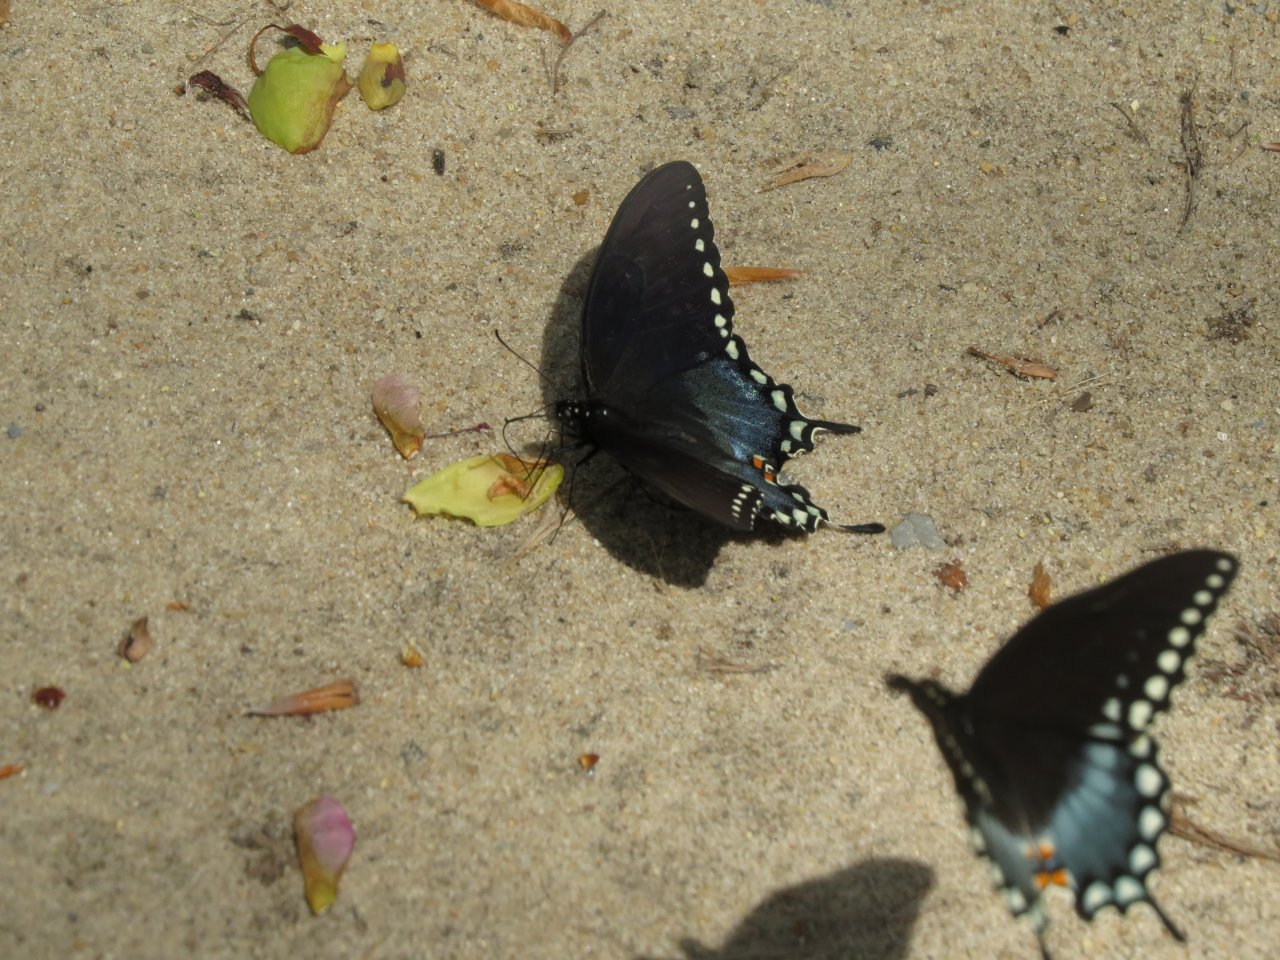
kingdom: Animalia
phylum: Arthropoda
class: Insecta
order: Lepidoptera
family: Papilionidae
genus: Pterourus
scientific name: Pterourus troilus
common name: Spicebush Swallowtail
